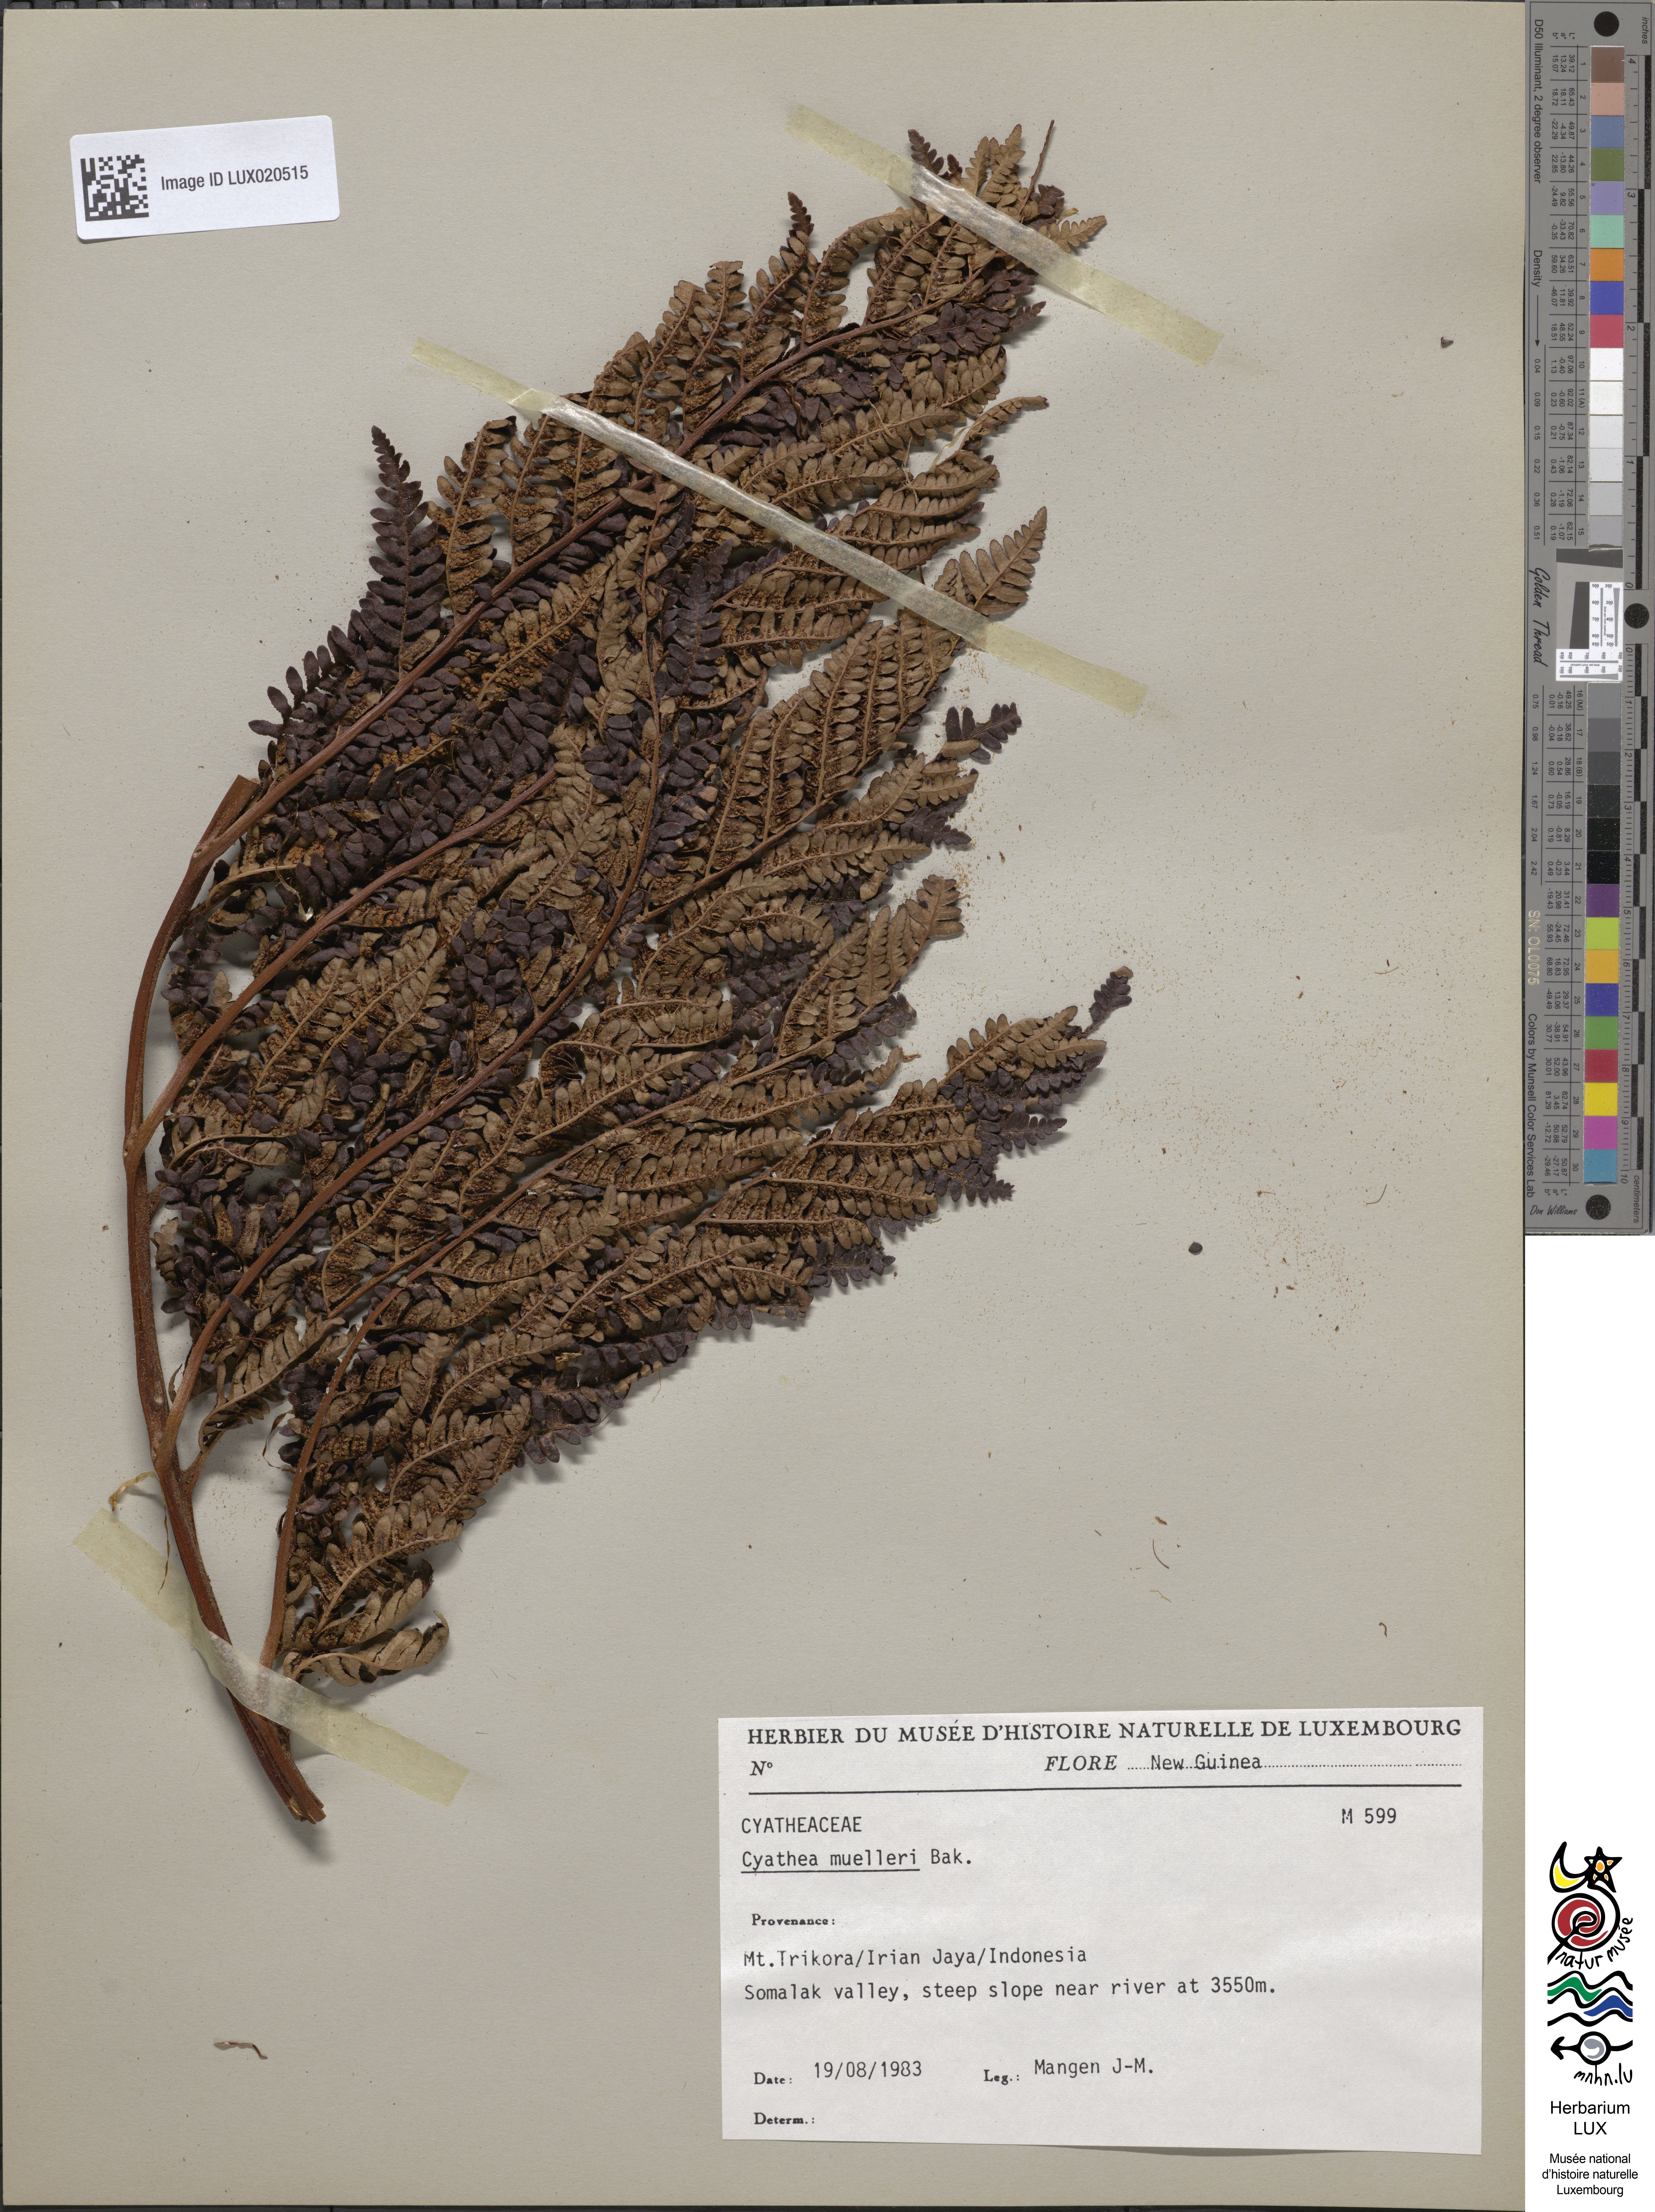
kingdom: Plantae
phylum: Tracheophyta
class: Polypodiopsida
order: Cyatheales
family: Cyatheaceae
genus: Alsophila
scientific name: Alsophila muelleri
